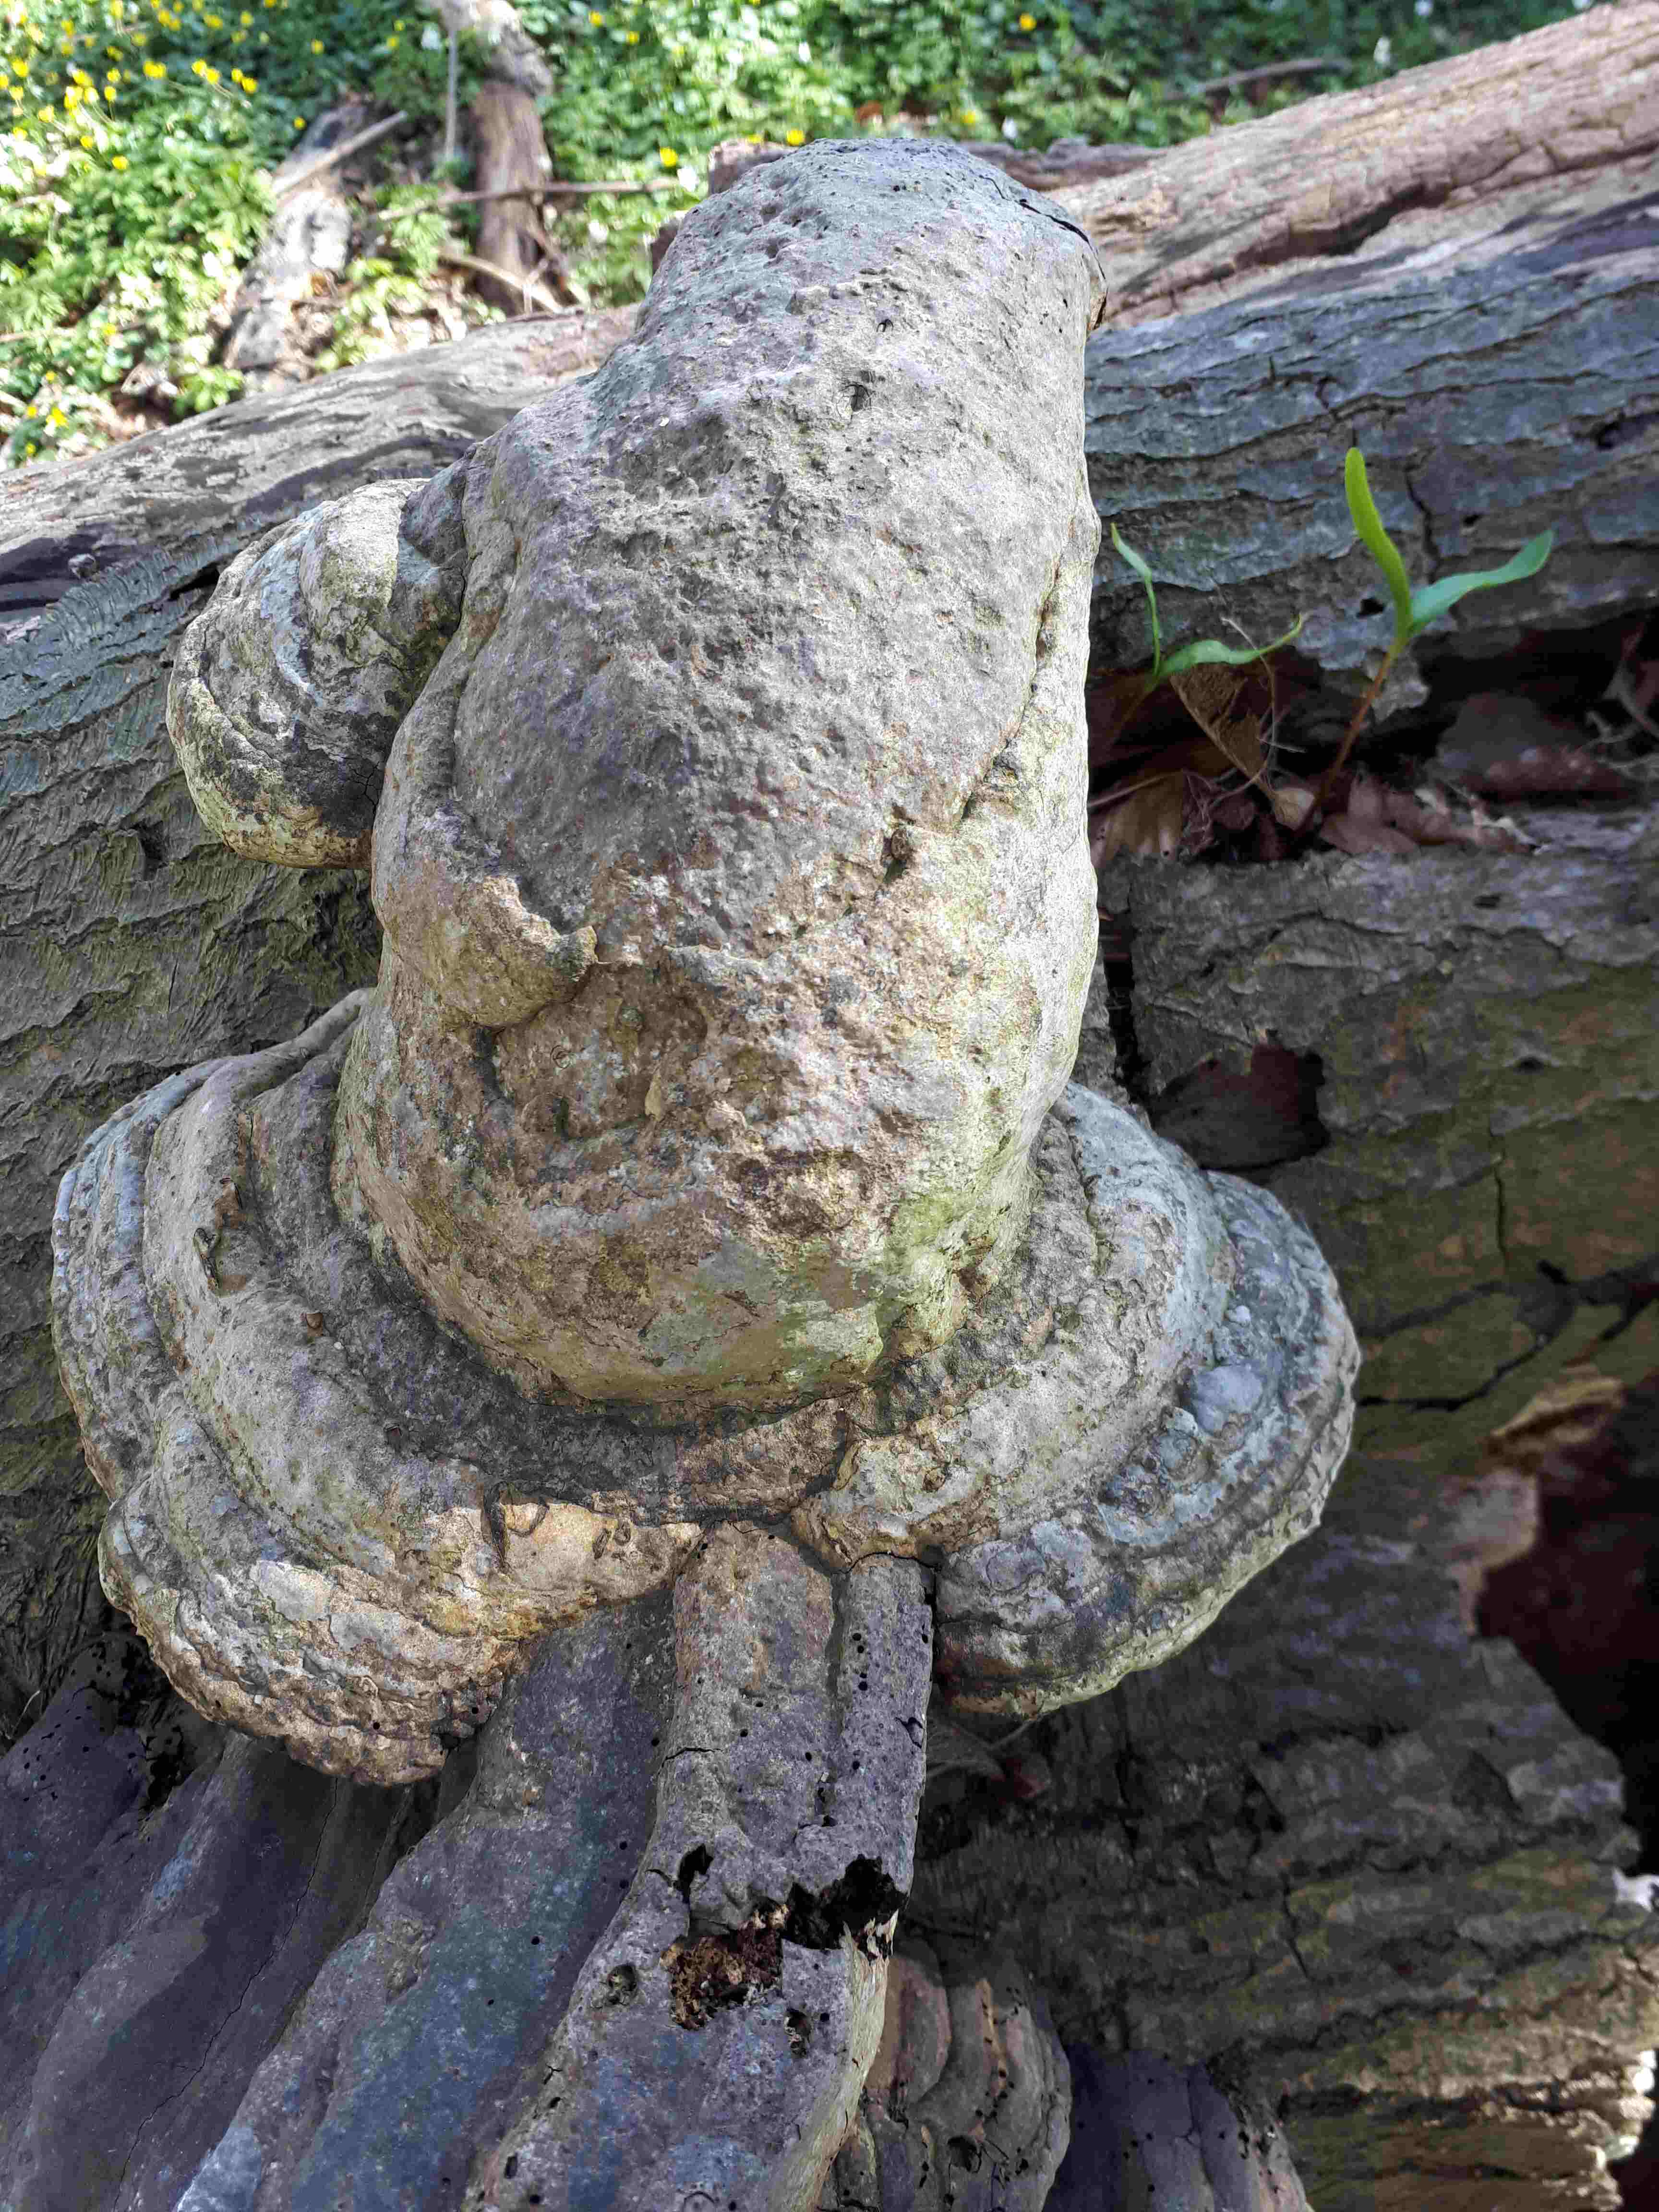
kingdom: Fungi
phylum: Basidiomycota
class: Agaricomycetes
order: Polyporales
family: Polyporaceae
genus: Fomes
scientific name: Fomes fomentarius
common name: tøndersvamp
